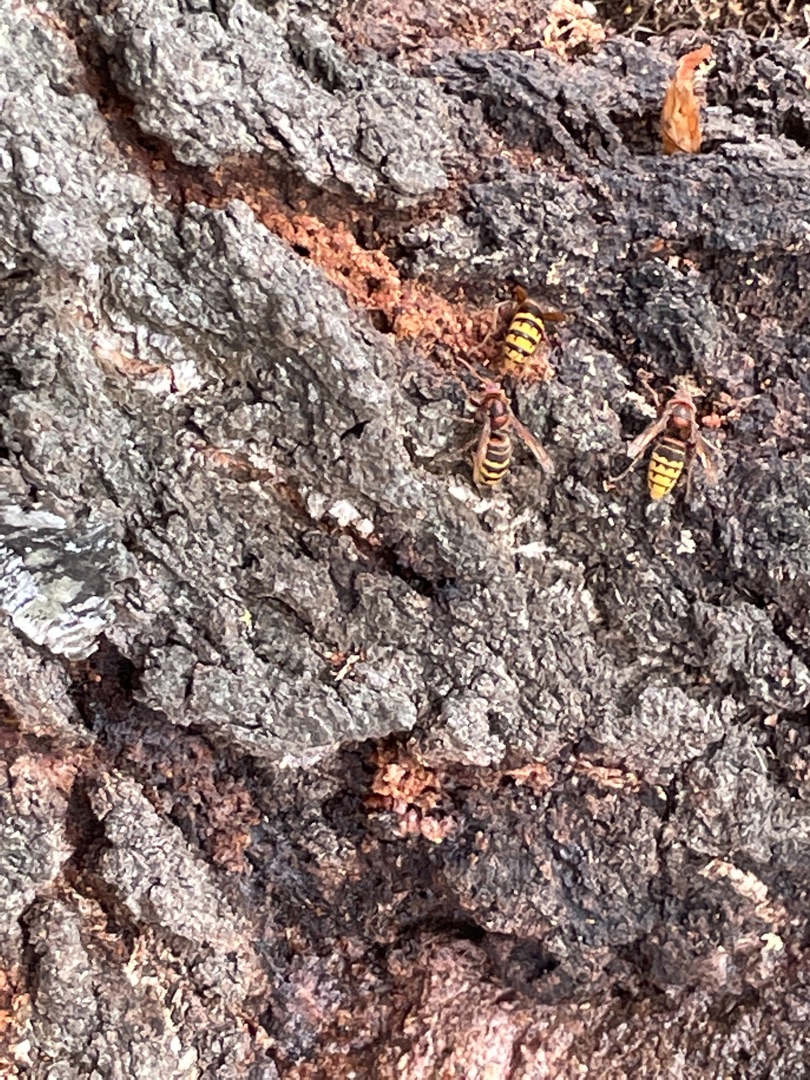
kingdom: Animalia
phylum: Arthropoda
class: Insecta
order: Hymenoptera
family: Vespidae
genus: Vespa
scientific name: Vespa crabro
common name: Stor gedehams
